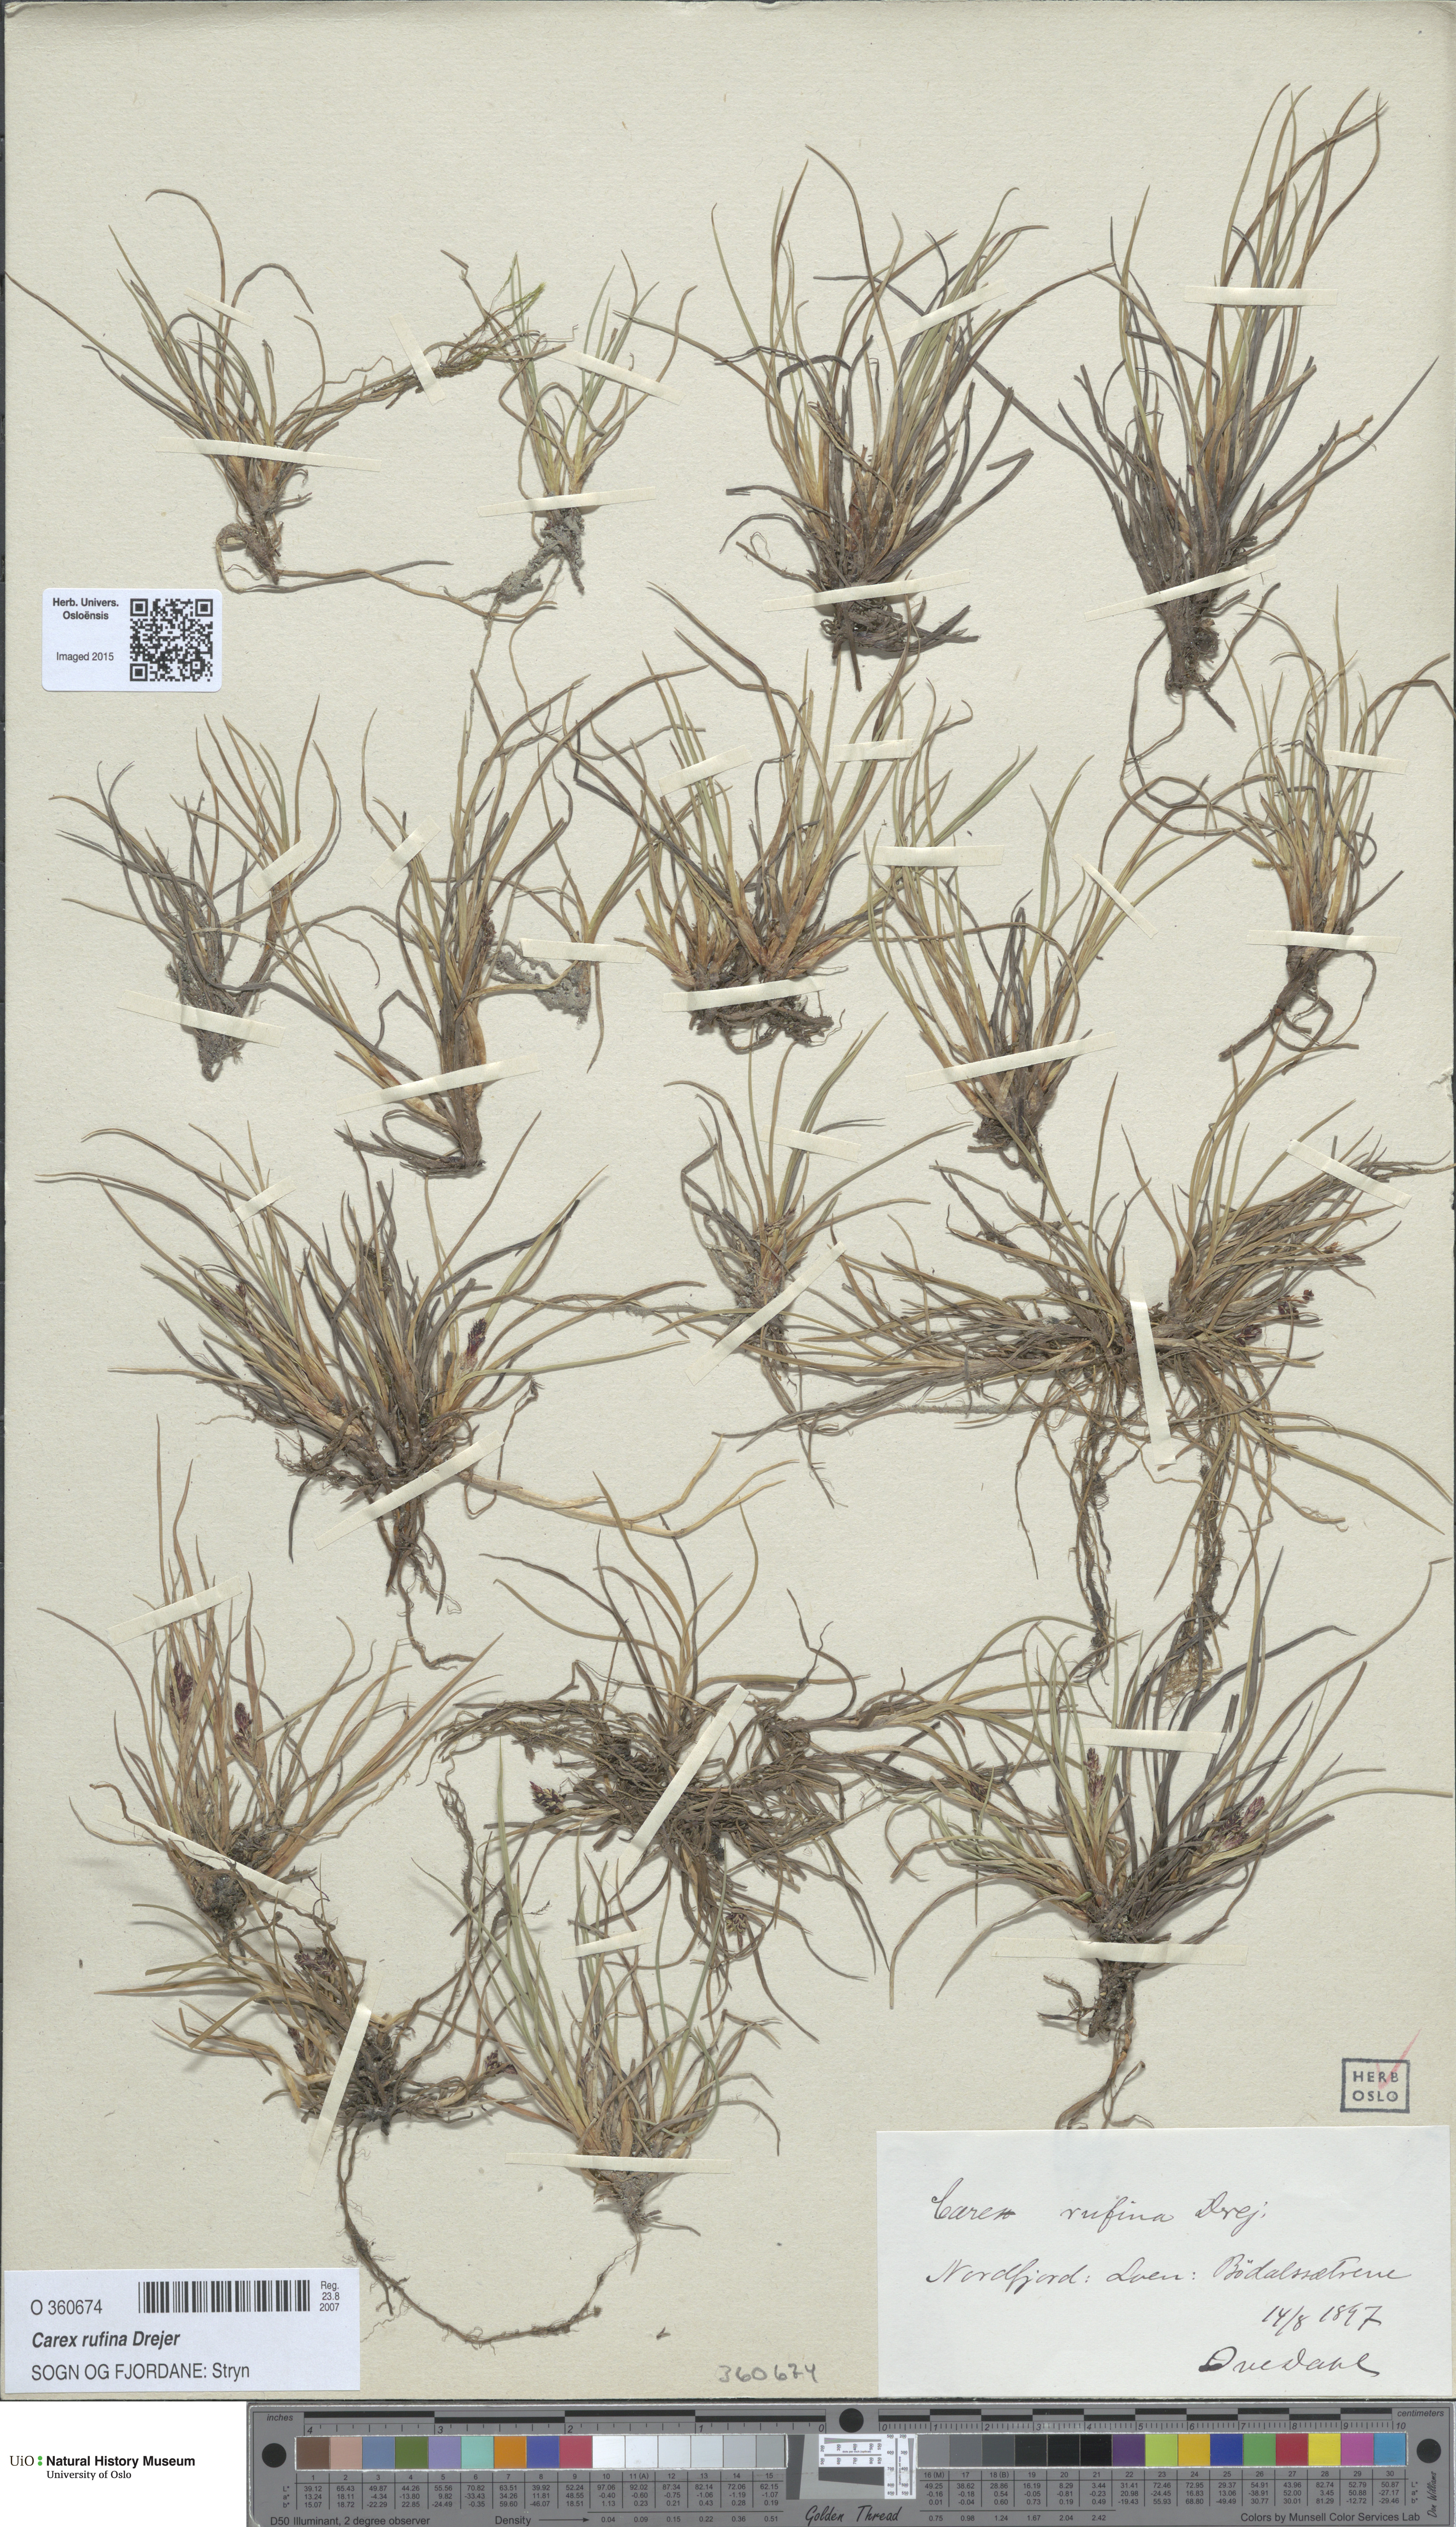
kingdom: Plantae
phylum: Tracheophyta
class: Liliopsida
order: Poales
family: Cyperaceae
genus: Carex
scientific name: Carex rufina
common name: Reddish sedge
